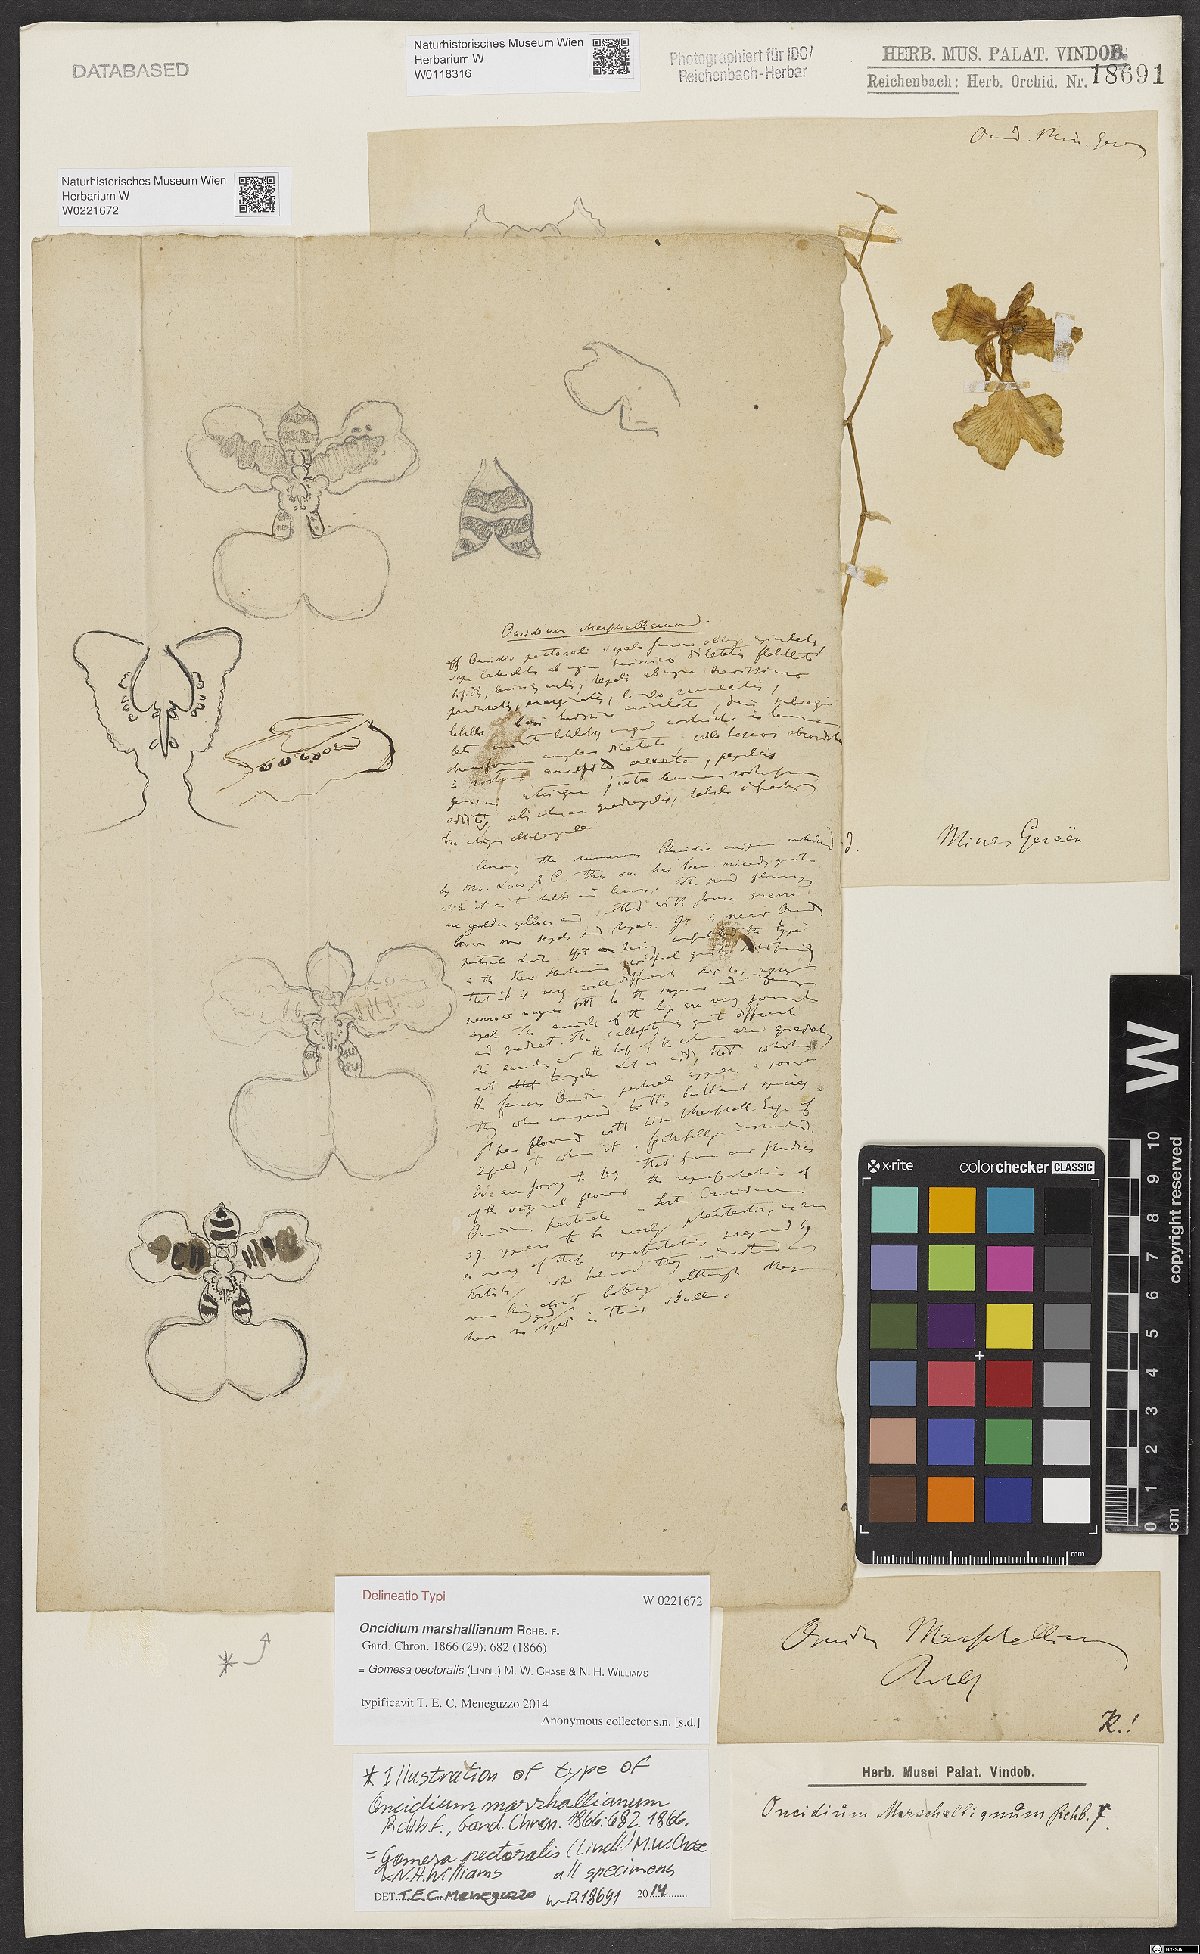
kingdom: Plantae
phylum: Tracheophyta
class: Liliopsida
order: Asparagales
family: Orchidaceae
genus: Gomesa
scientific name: Gomesa marshalliana
